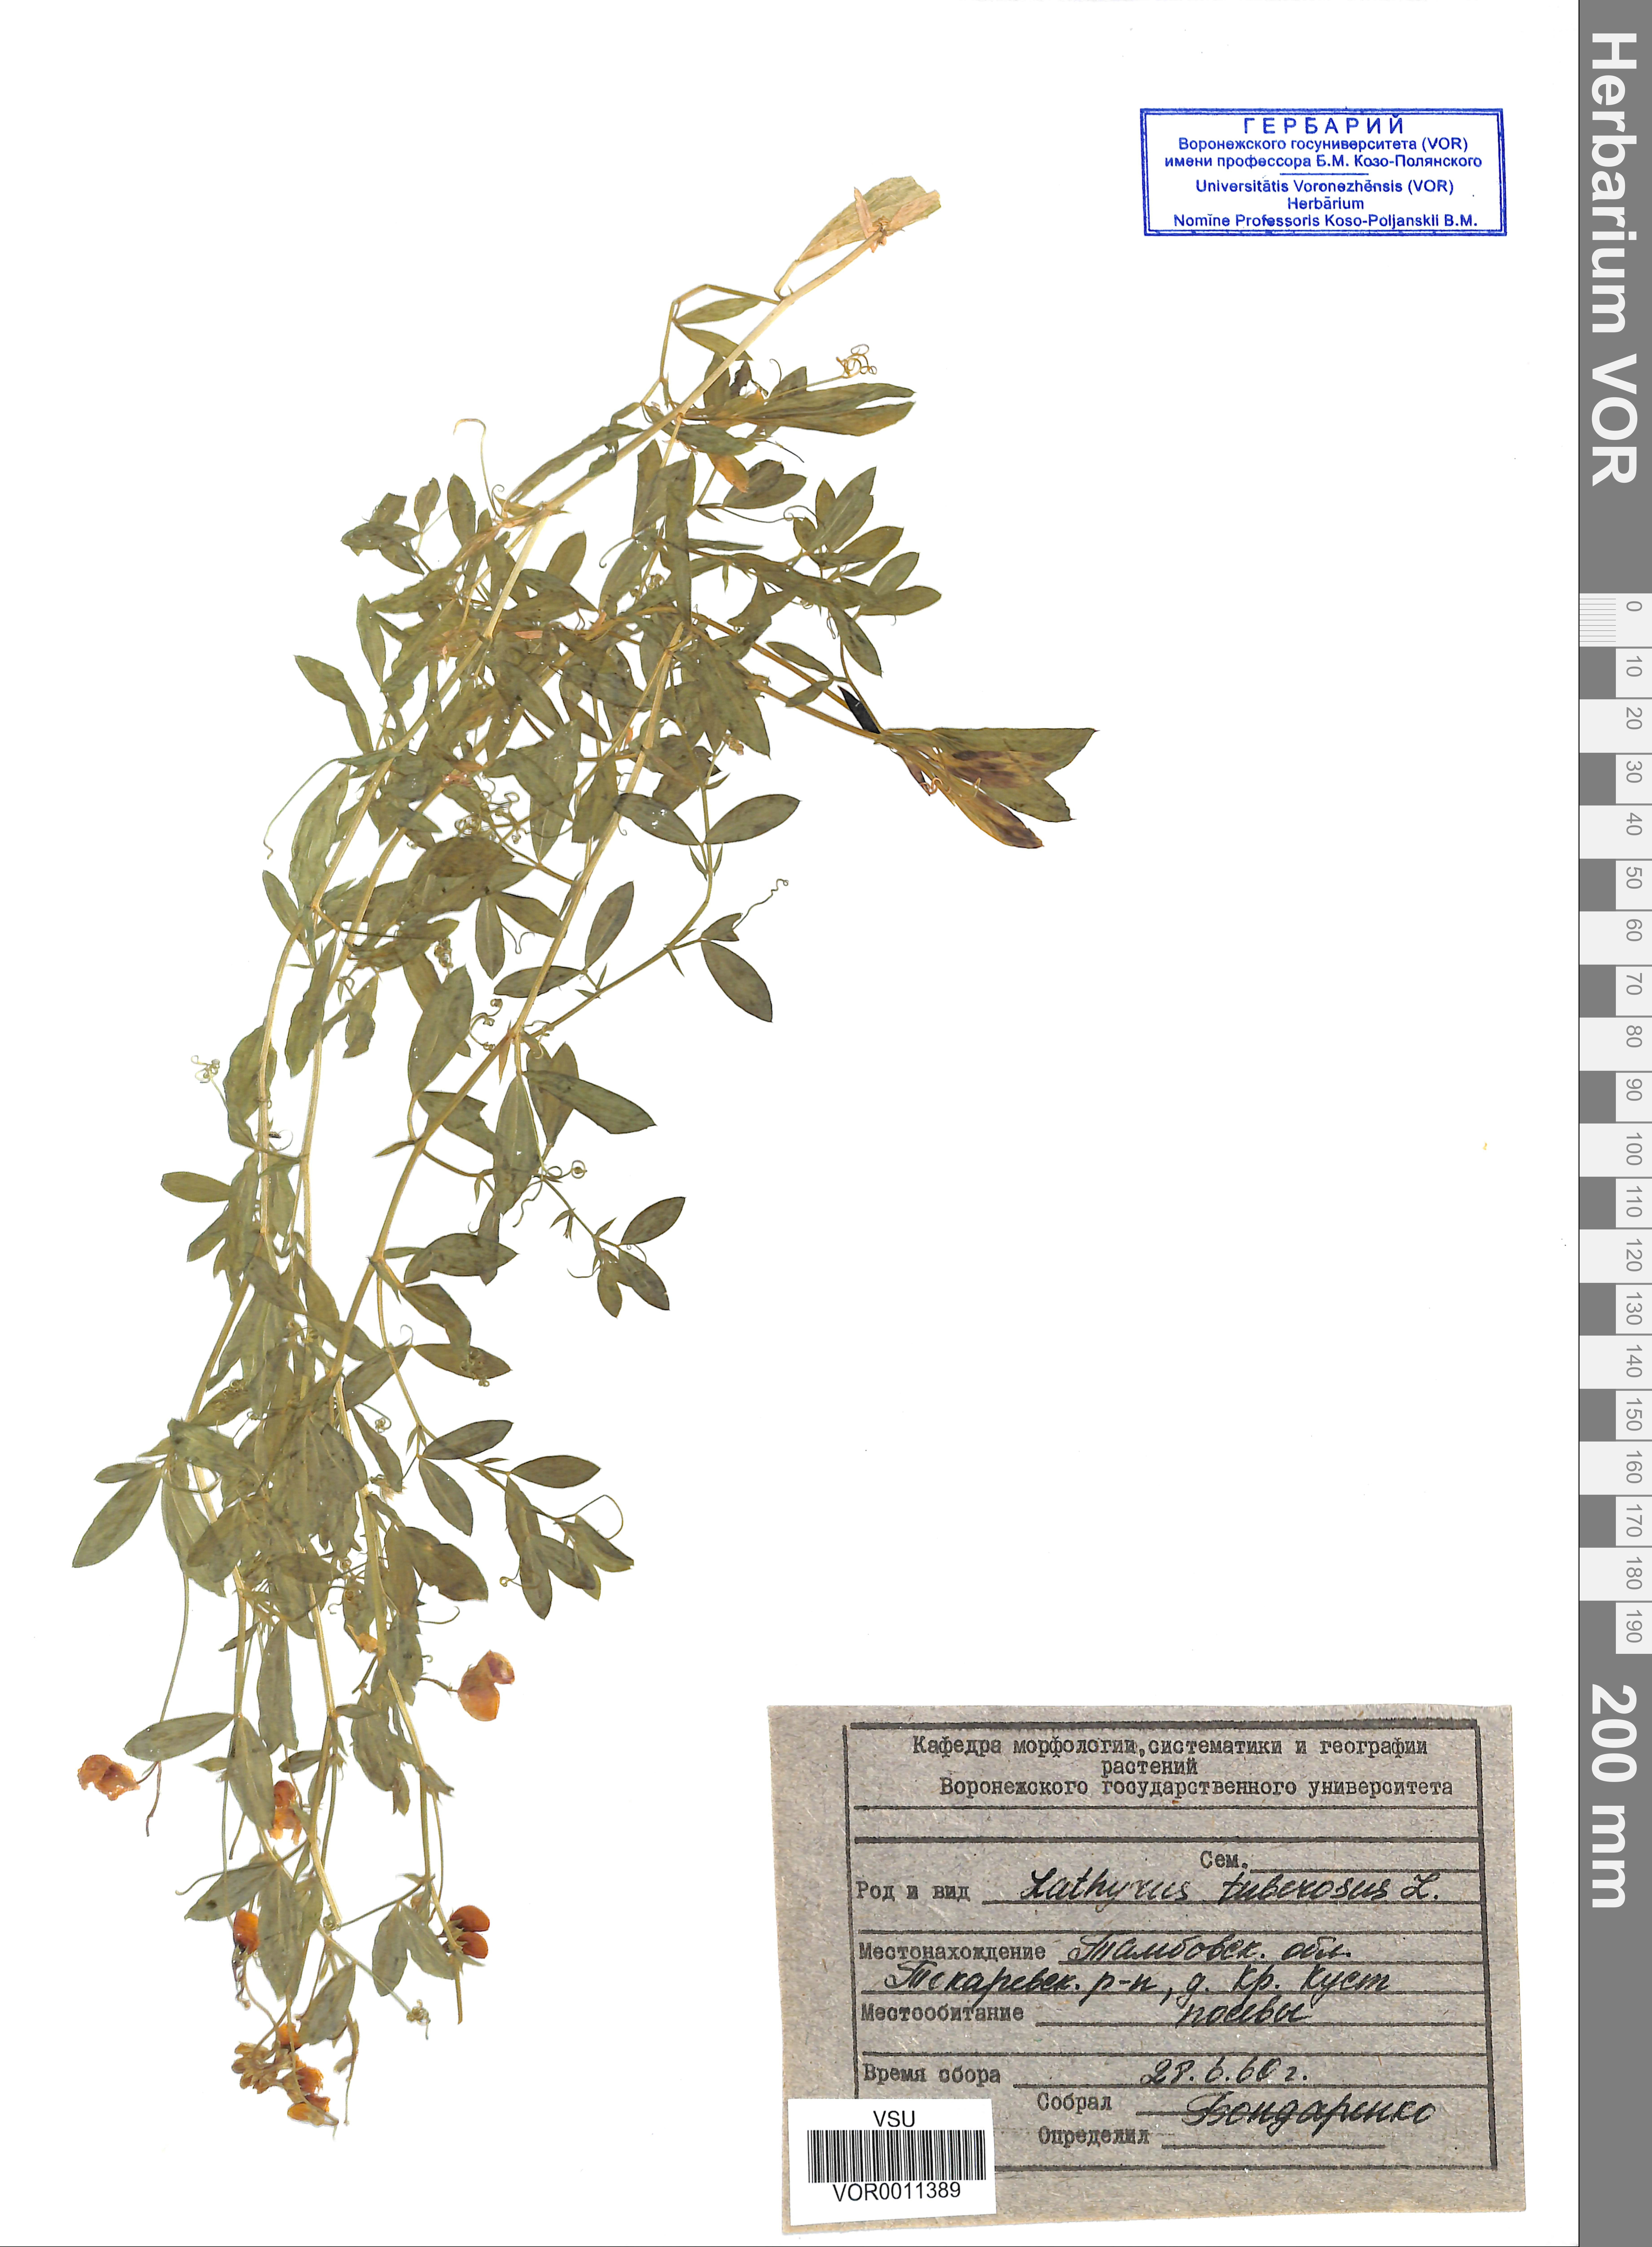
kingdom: Plantae
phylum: Tracheophyta
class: Magnoliopsida
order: Fabales
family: Fabaceae
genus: Lathyrus
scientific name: Lathyrus tuberosus
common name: Tuberous pea
